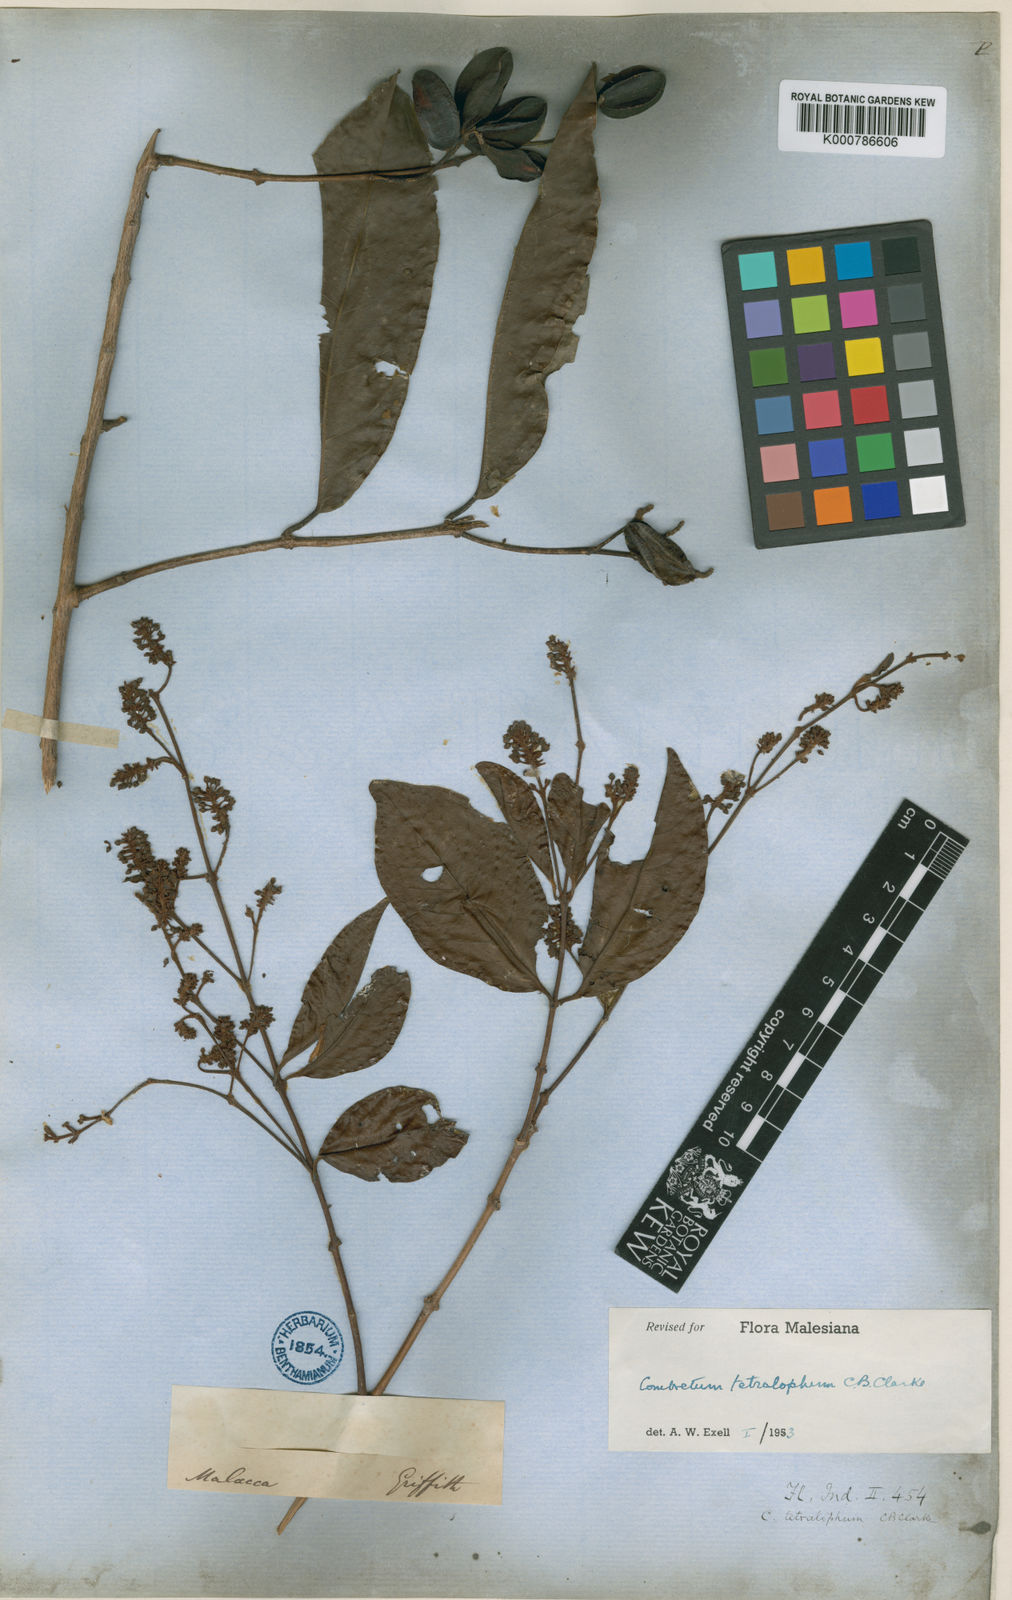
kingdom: Plantae
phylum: Tracheophyta
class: Magnoliopsida
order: Myrtales
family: Combretaceae
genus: Combretum
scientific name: Combretum tetralophum
